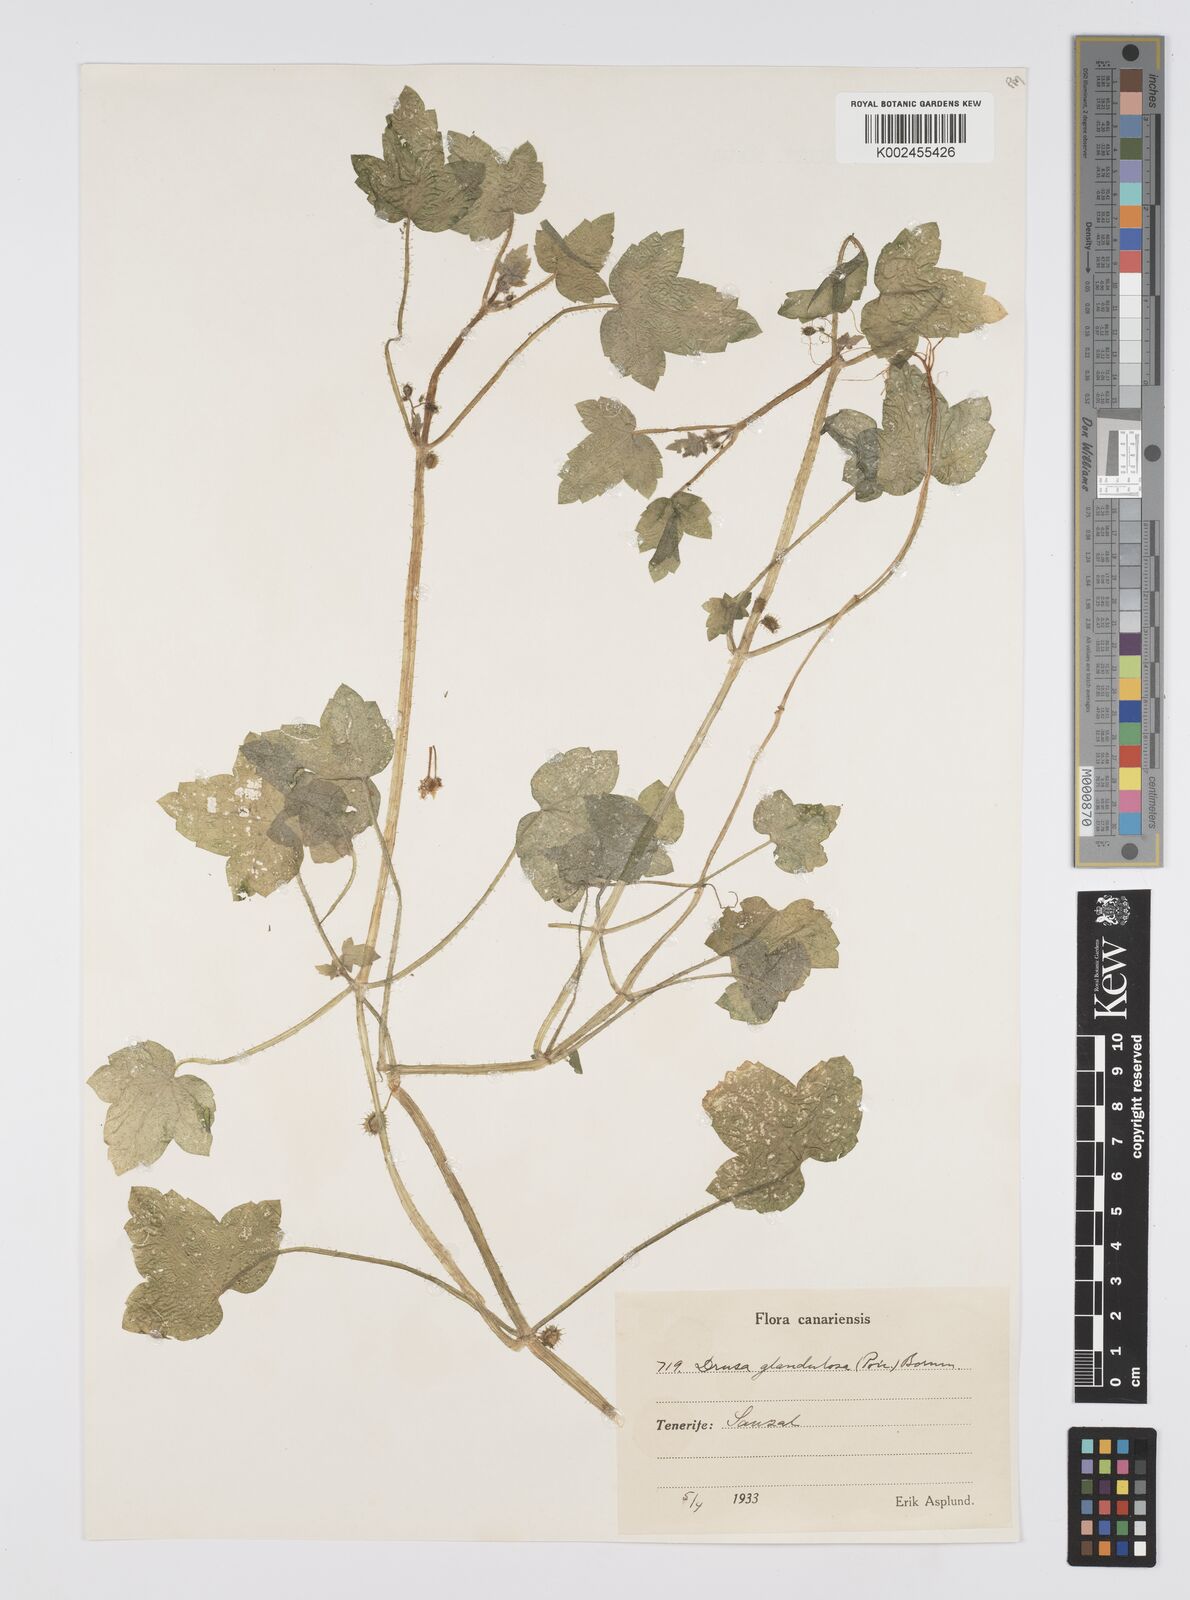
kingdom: Plantae
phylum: Tracheophyta
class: Magnoliopsida
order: Apiales
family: Apiaceae
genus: Drusa
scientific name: Drusa glandulosa
